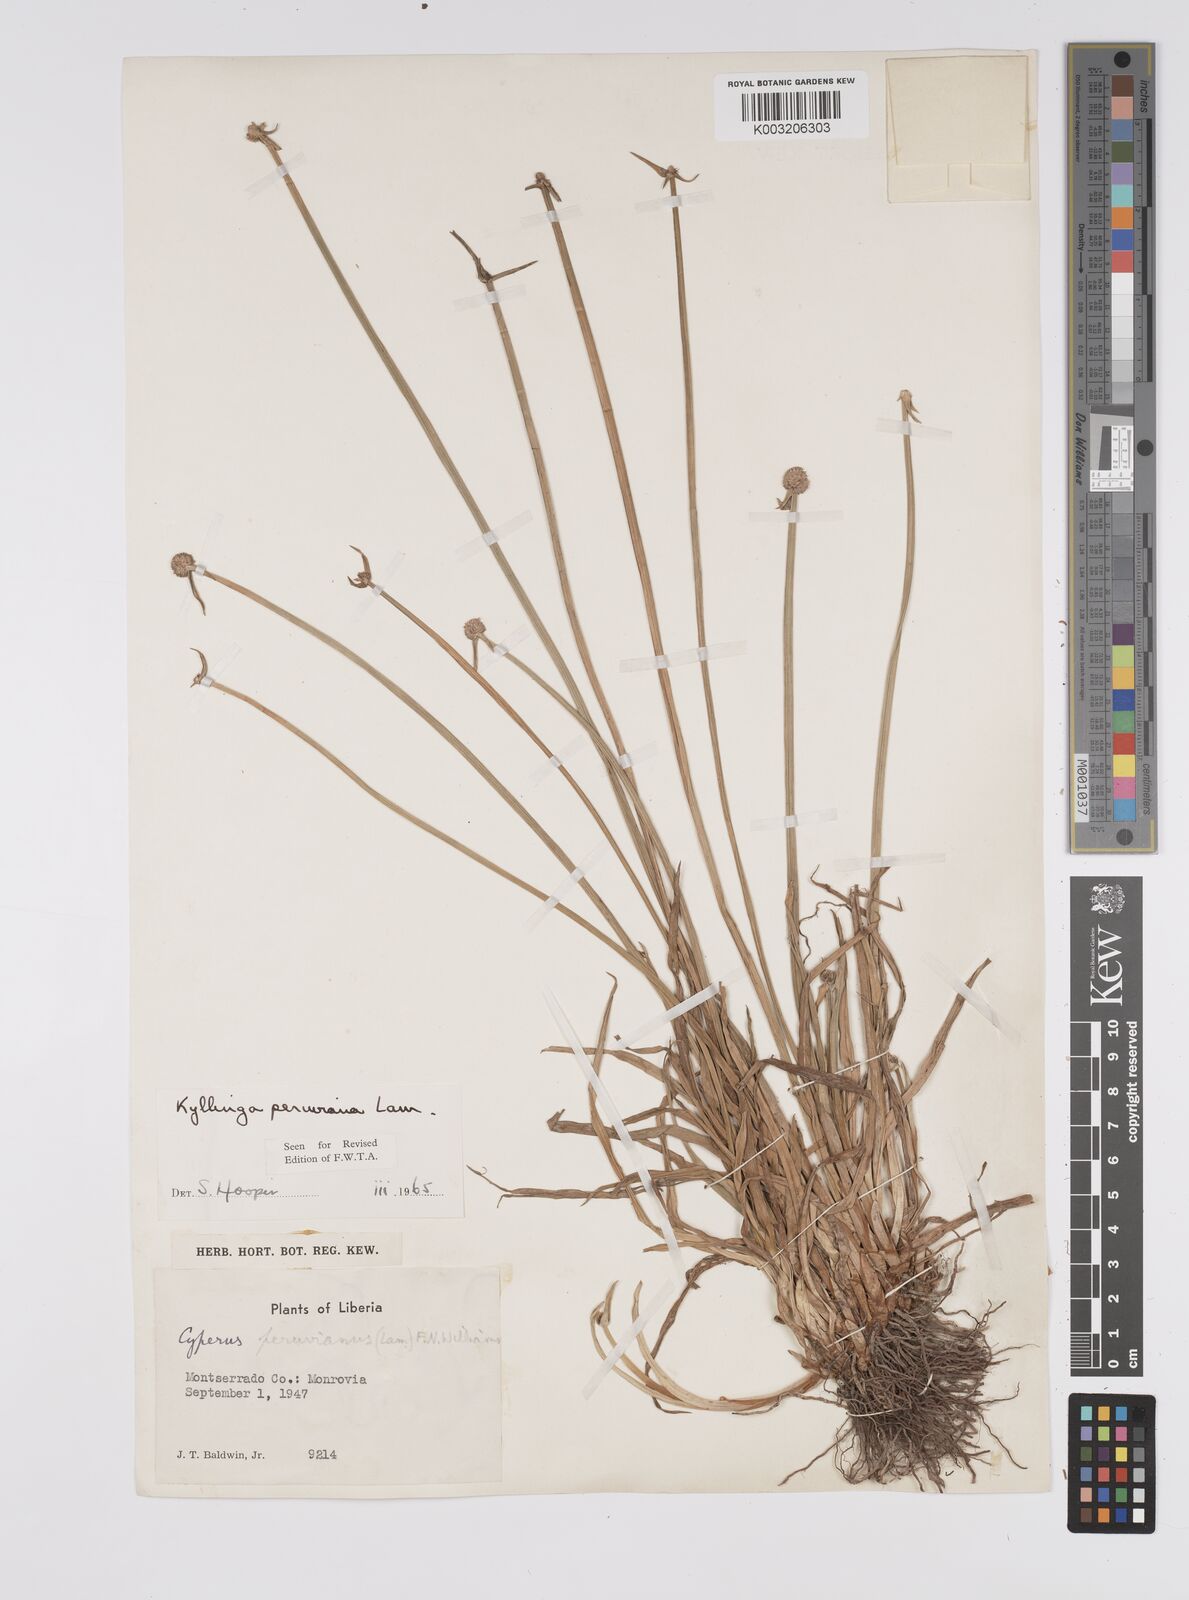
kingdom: Plantae
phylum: Tracheophyta
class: Liliopsida
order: Poales
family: Cyperaceae
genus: Cyperus
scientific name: Cyperus obtusatus
